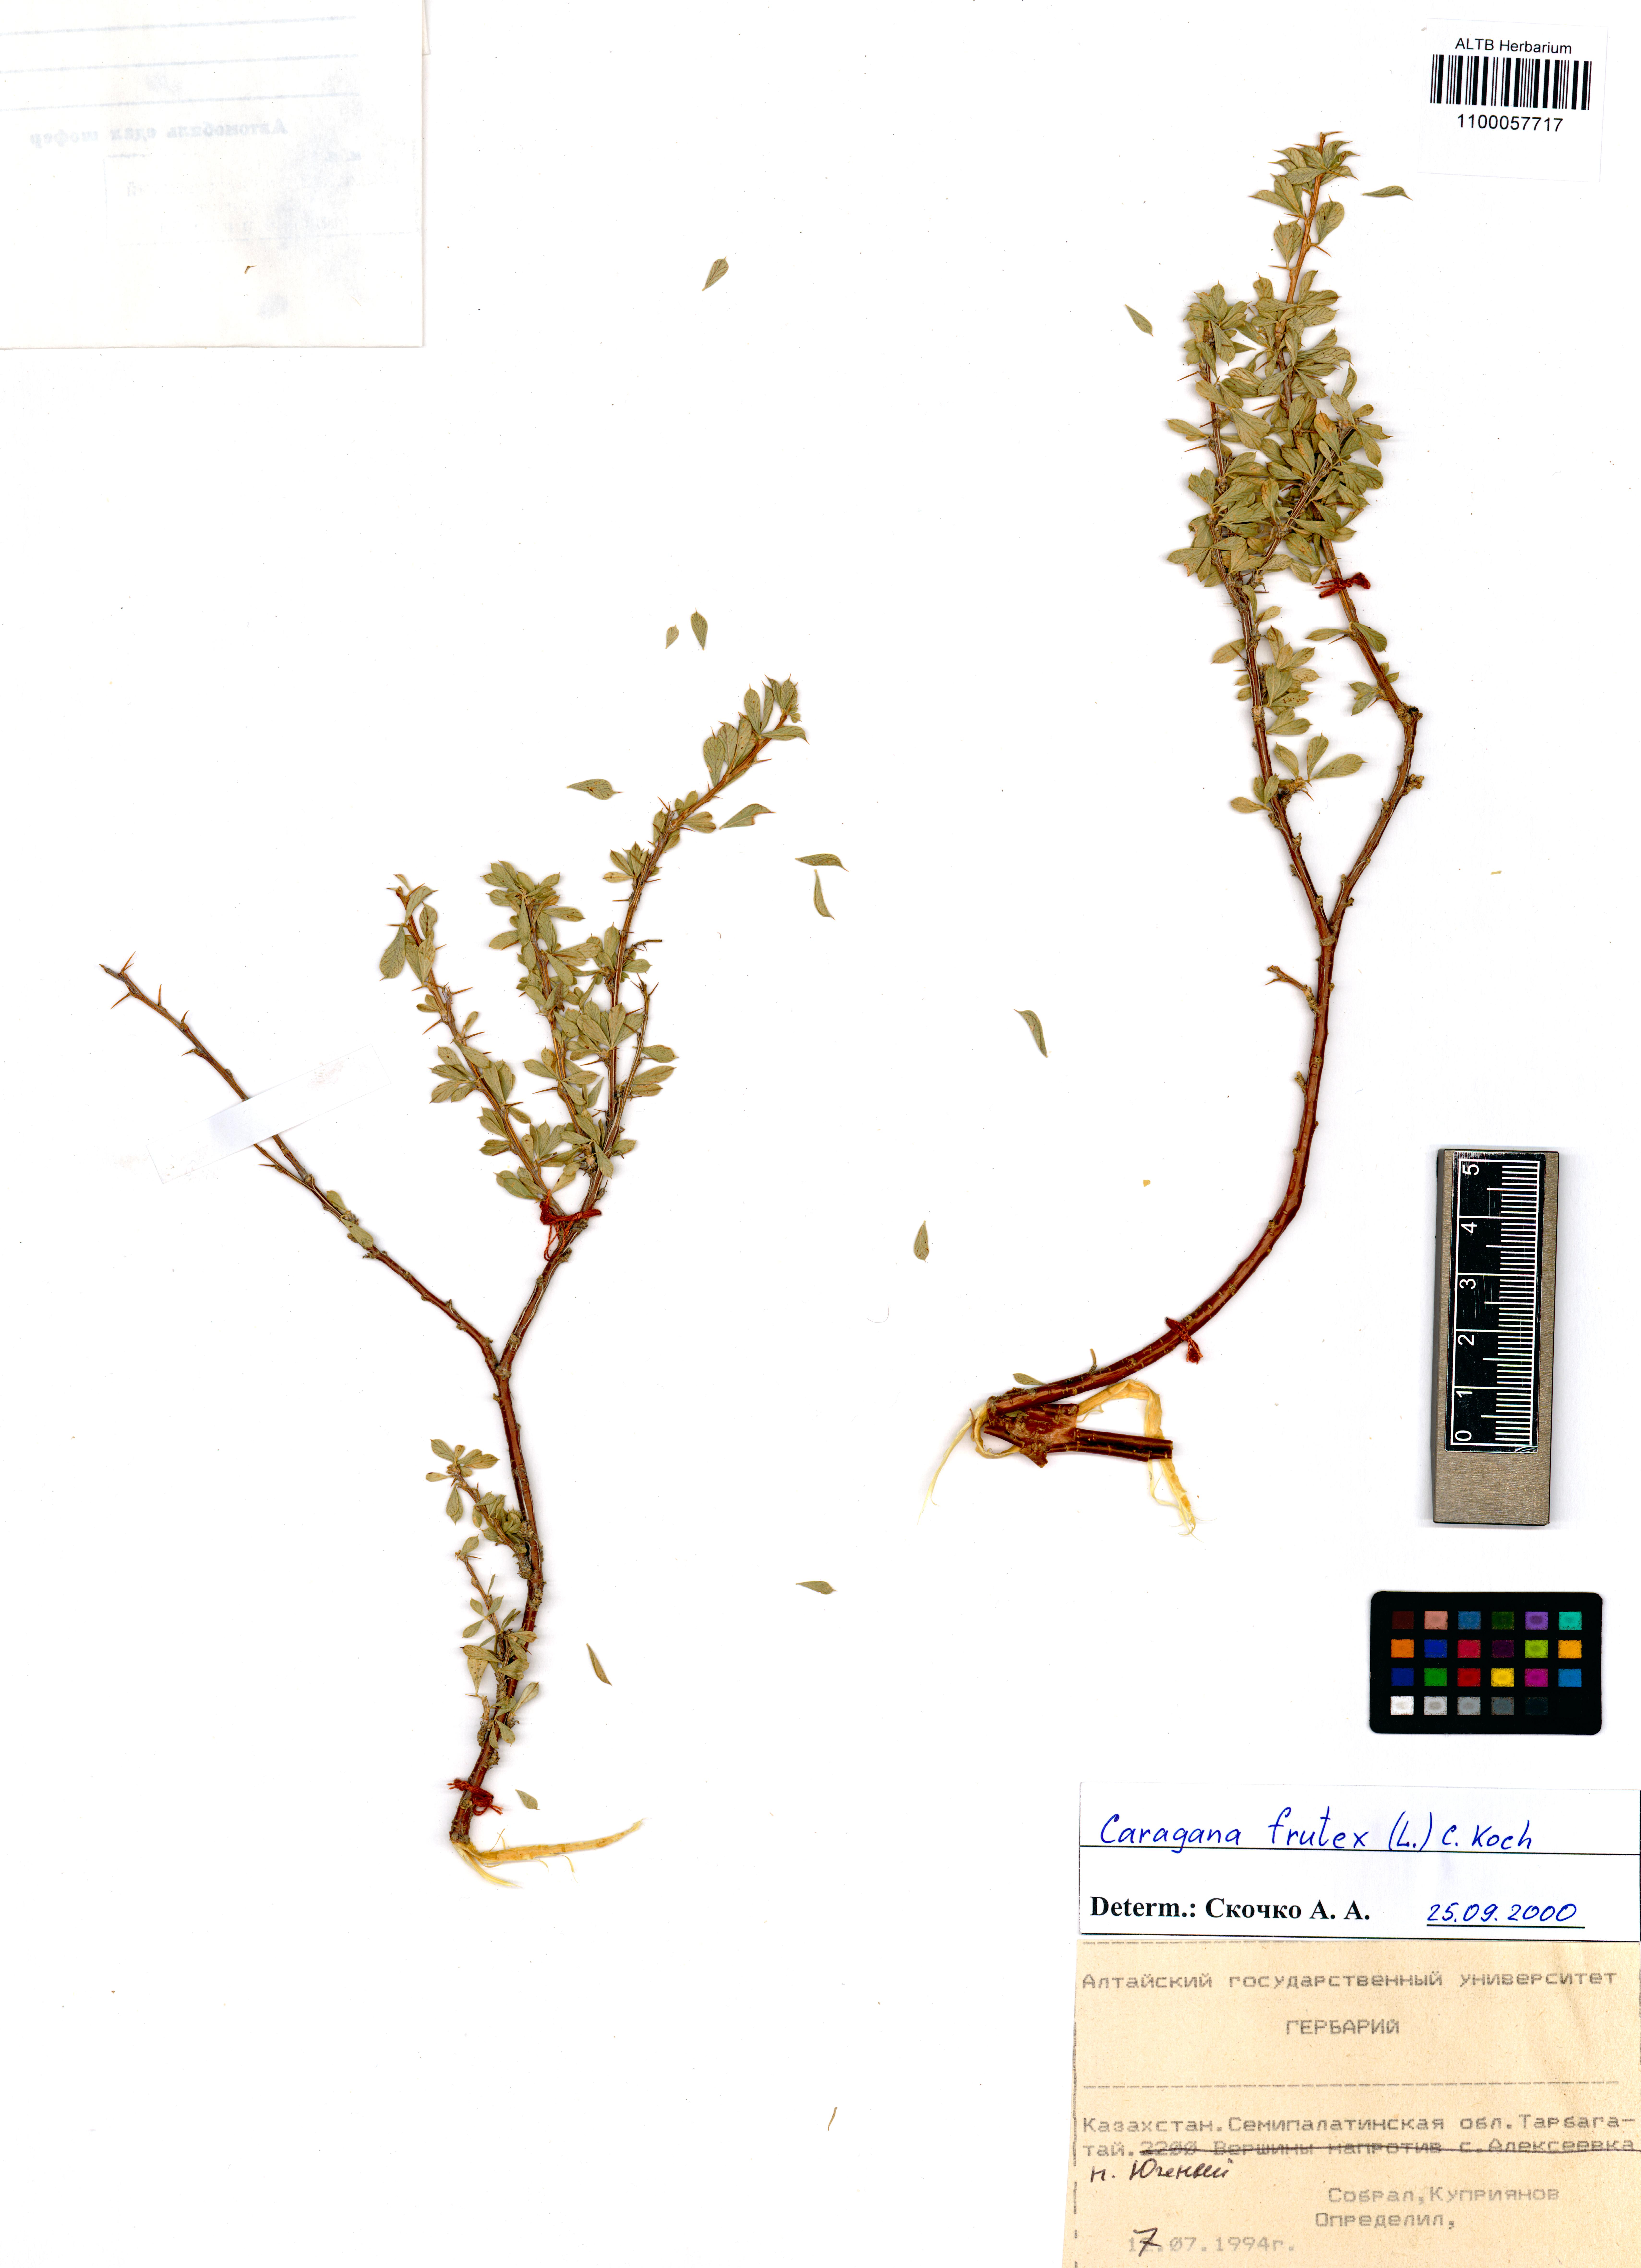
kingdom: Plantae
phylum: Tracheophyta
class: Magnoliopsida
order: Fabales
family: Fabaceae
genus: Caragana
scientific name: Caragana frutex
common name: Russian peashrub
